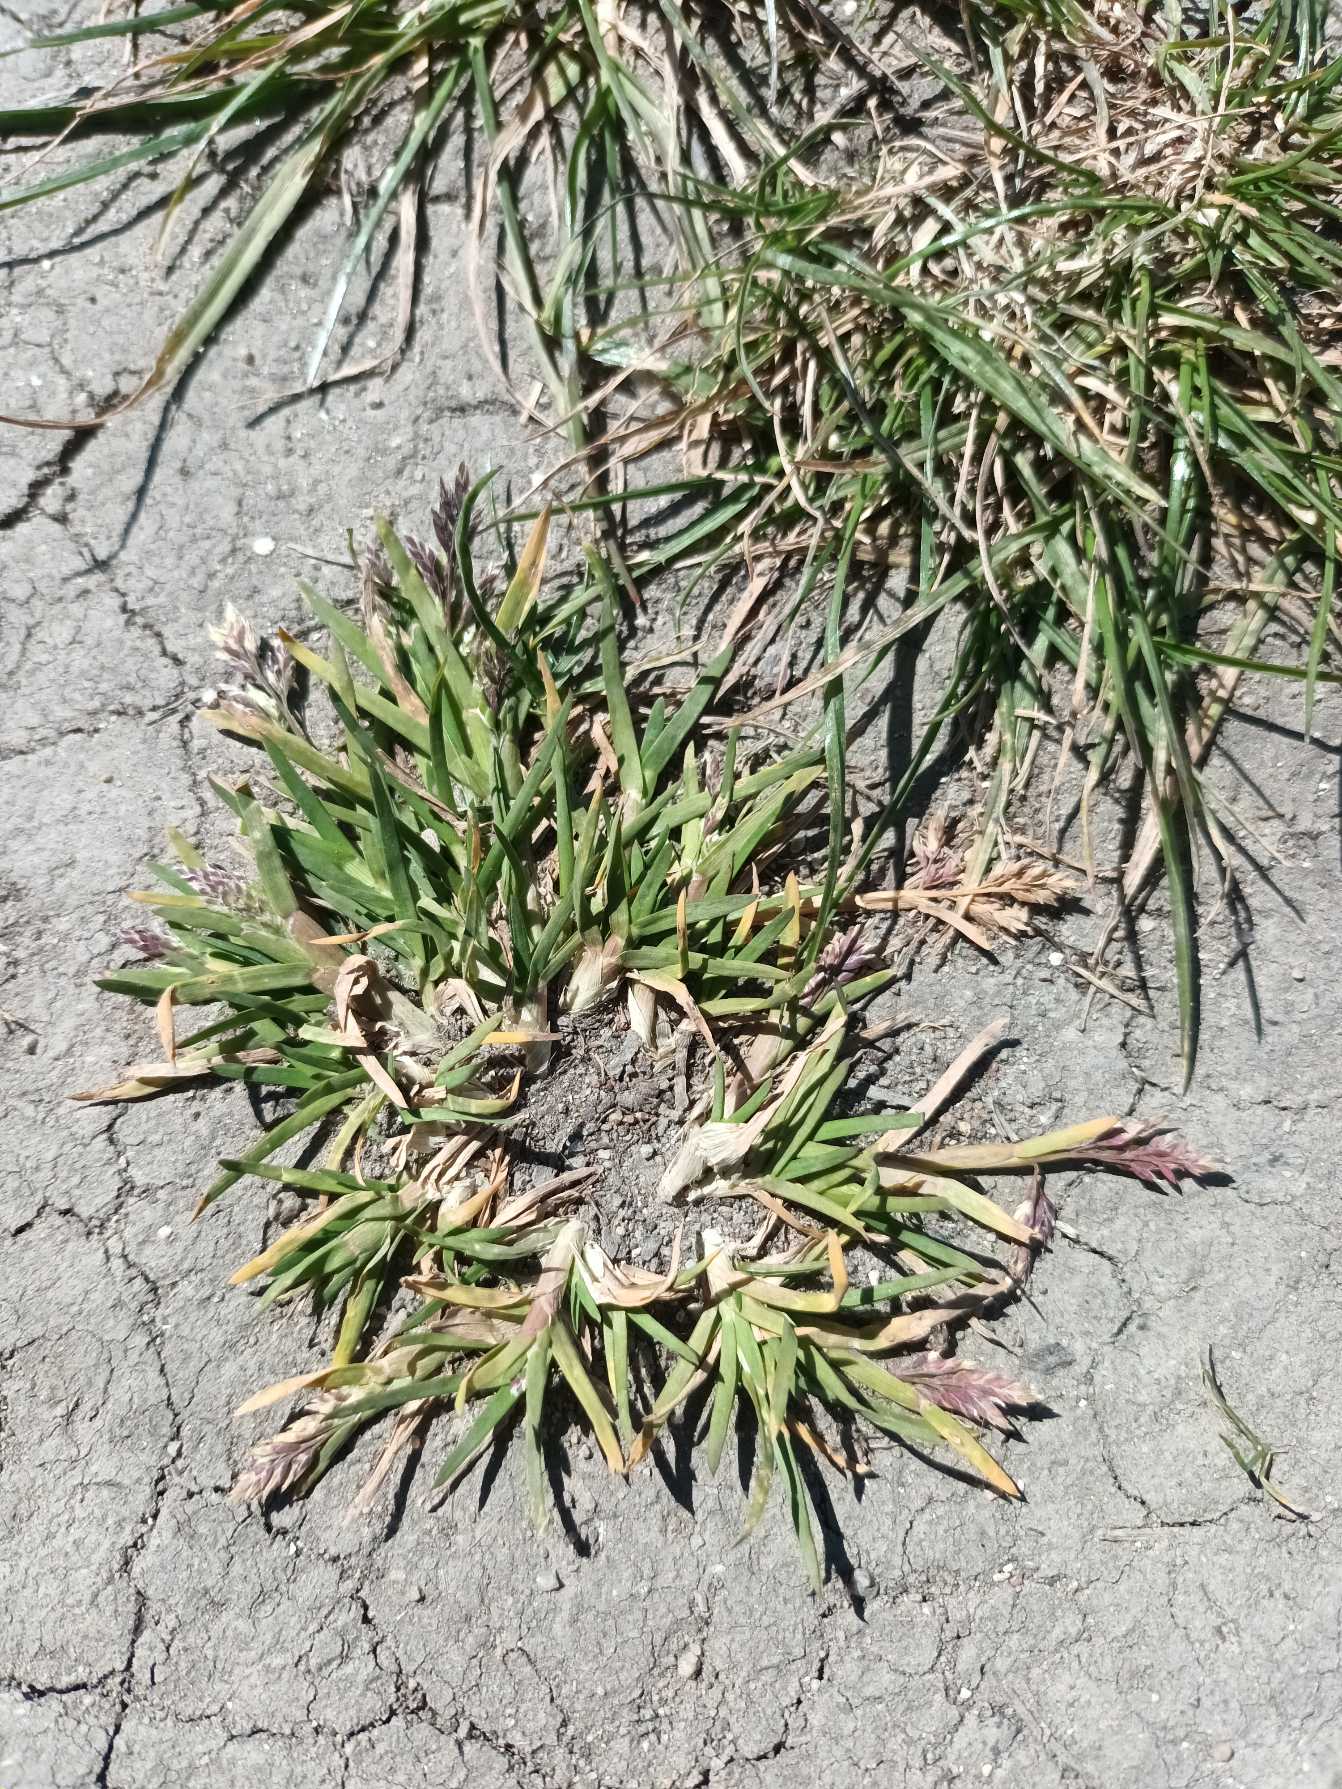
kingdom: Plantae
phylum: Tracheophyta
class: Liliopsida
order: Poales
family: Poaceae
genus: Poa
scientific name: Poa annua
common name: Enårig rapgræs
